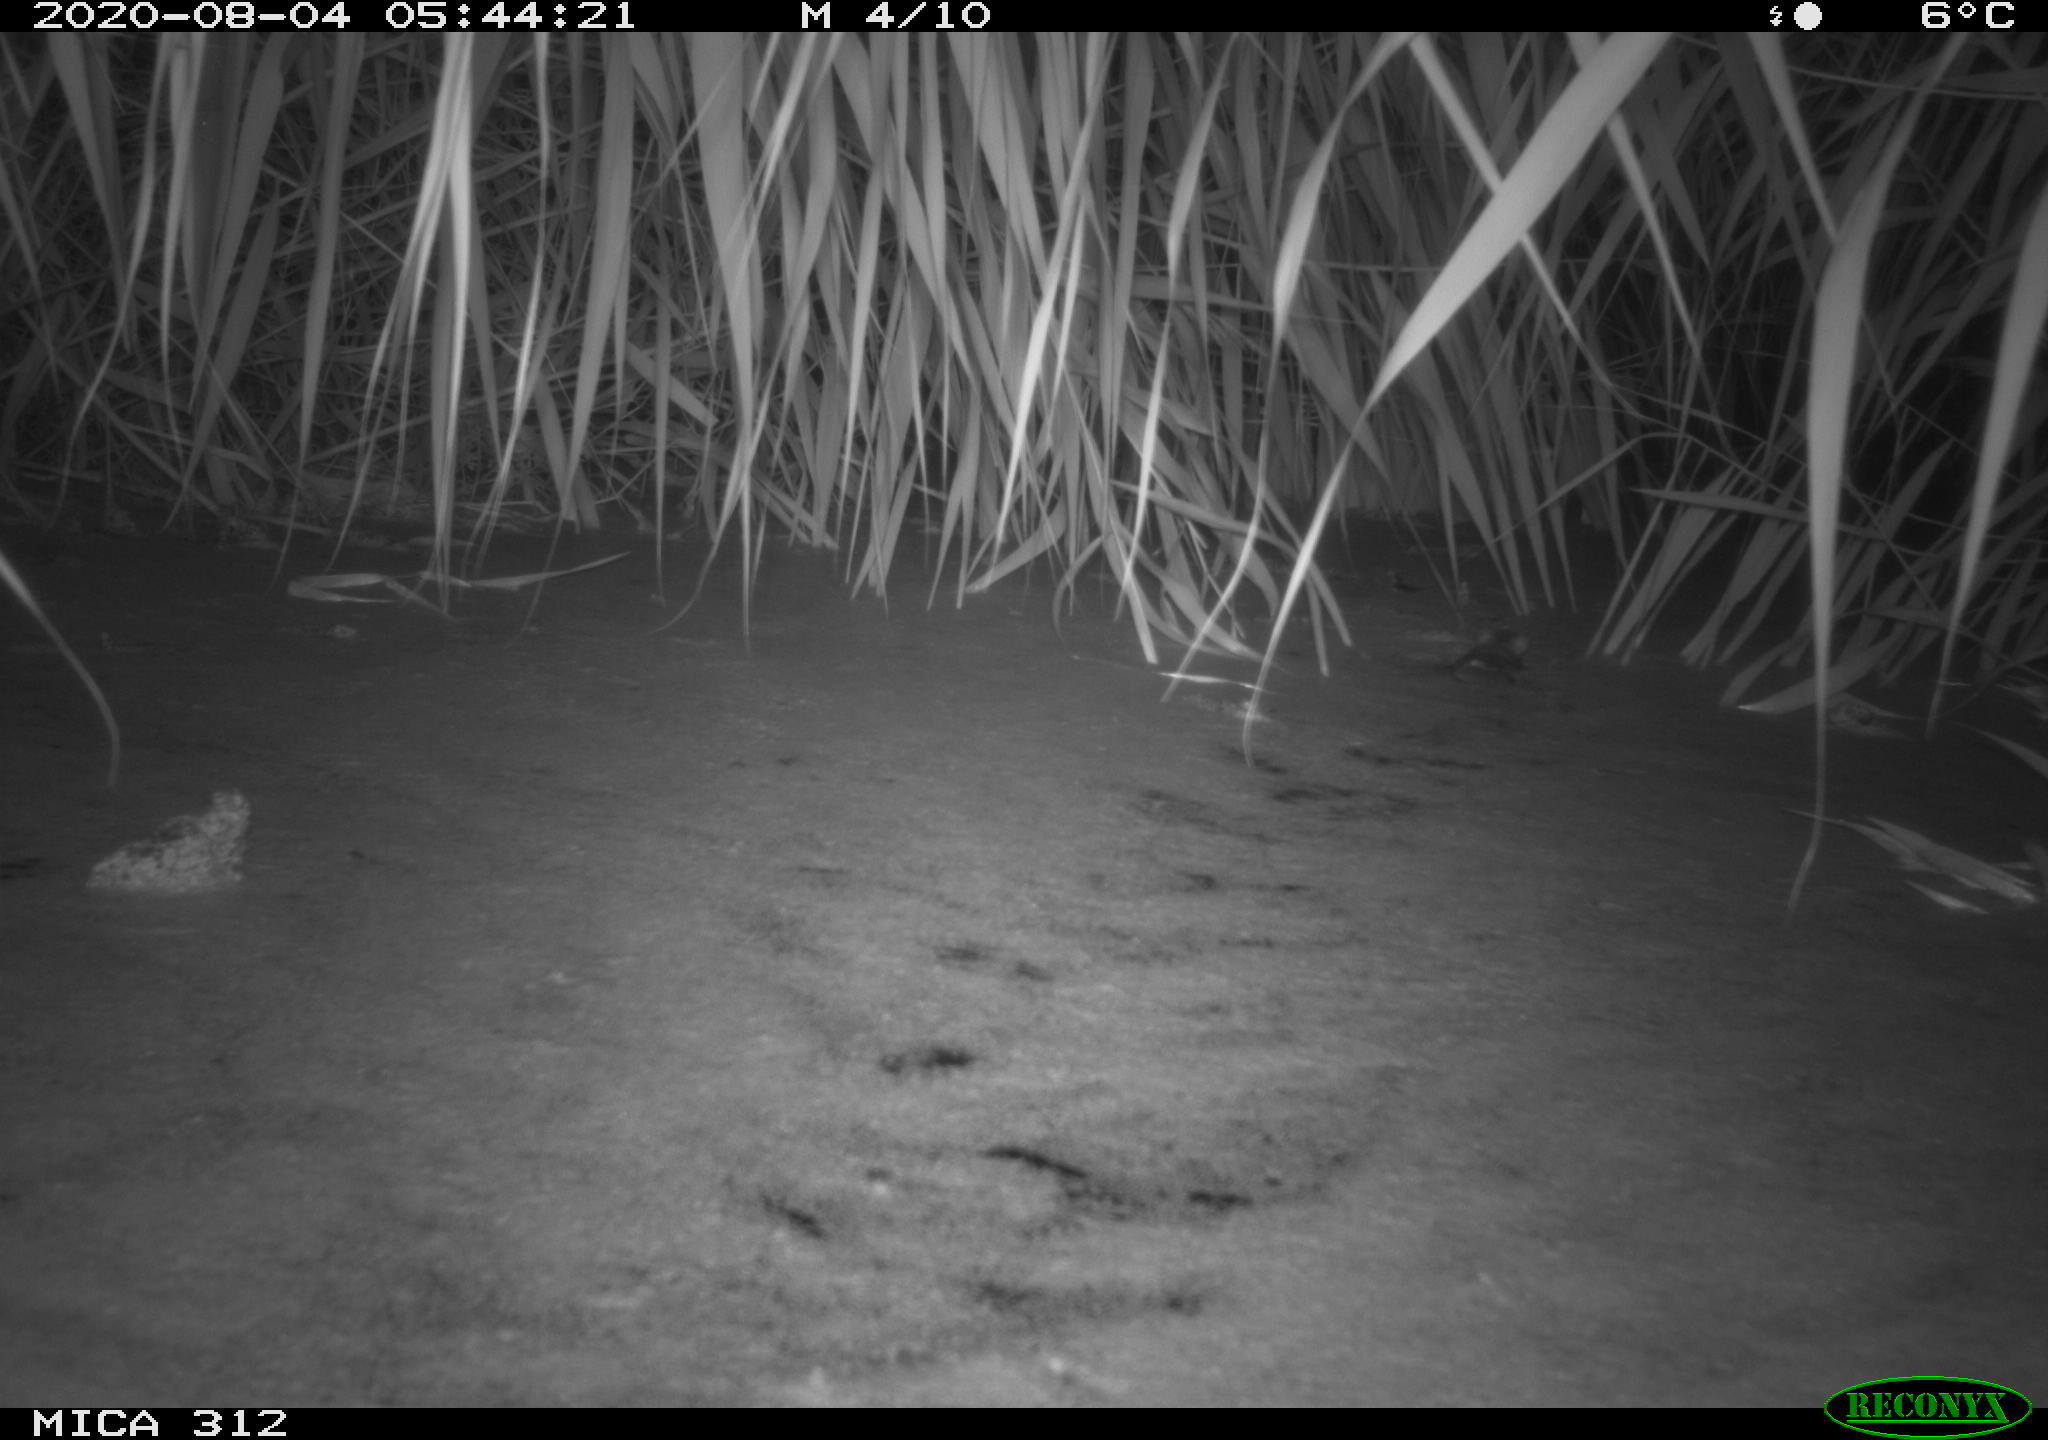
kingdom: Animalia
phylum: Chordata
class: Mammalia
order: Rodentia
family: Muridae
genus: Rattus
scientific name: Rattus norvegicus
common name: Brown rat
